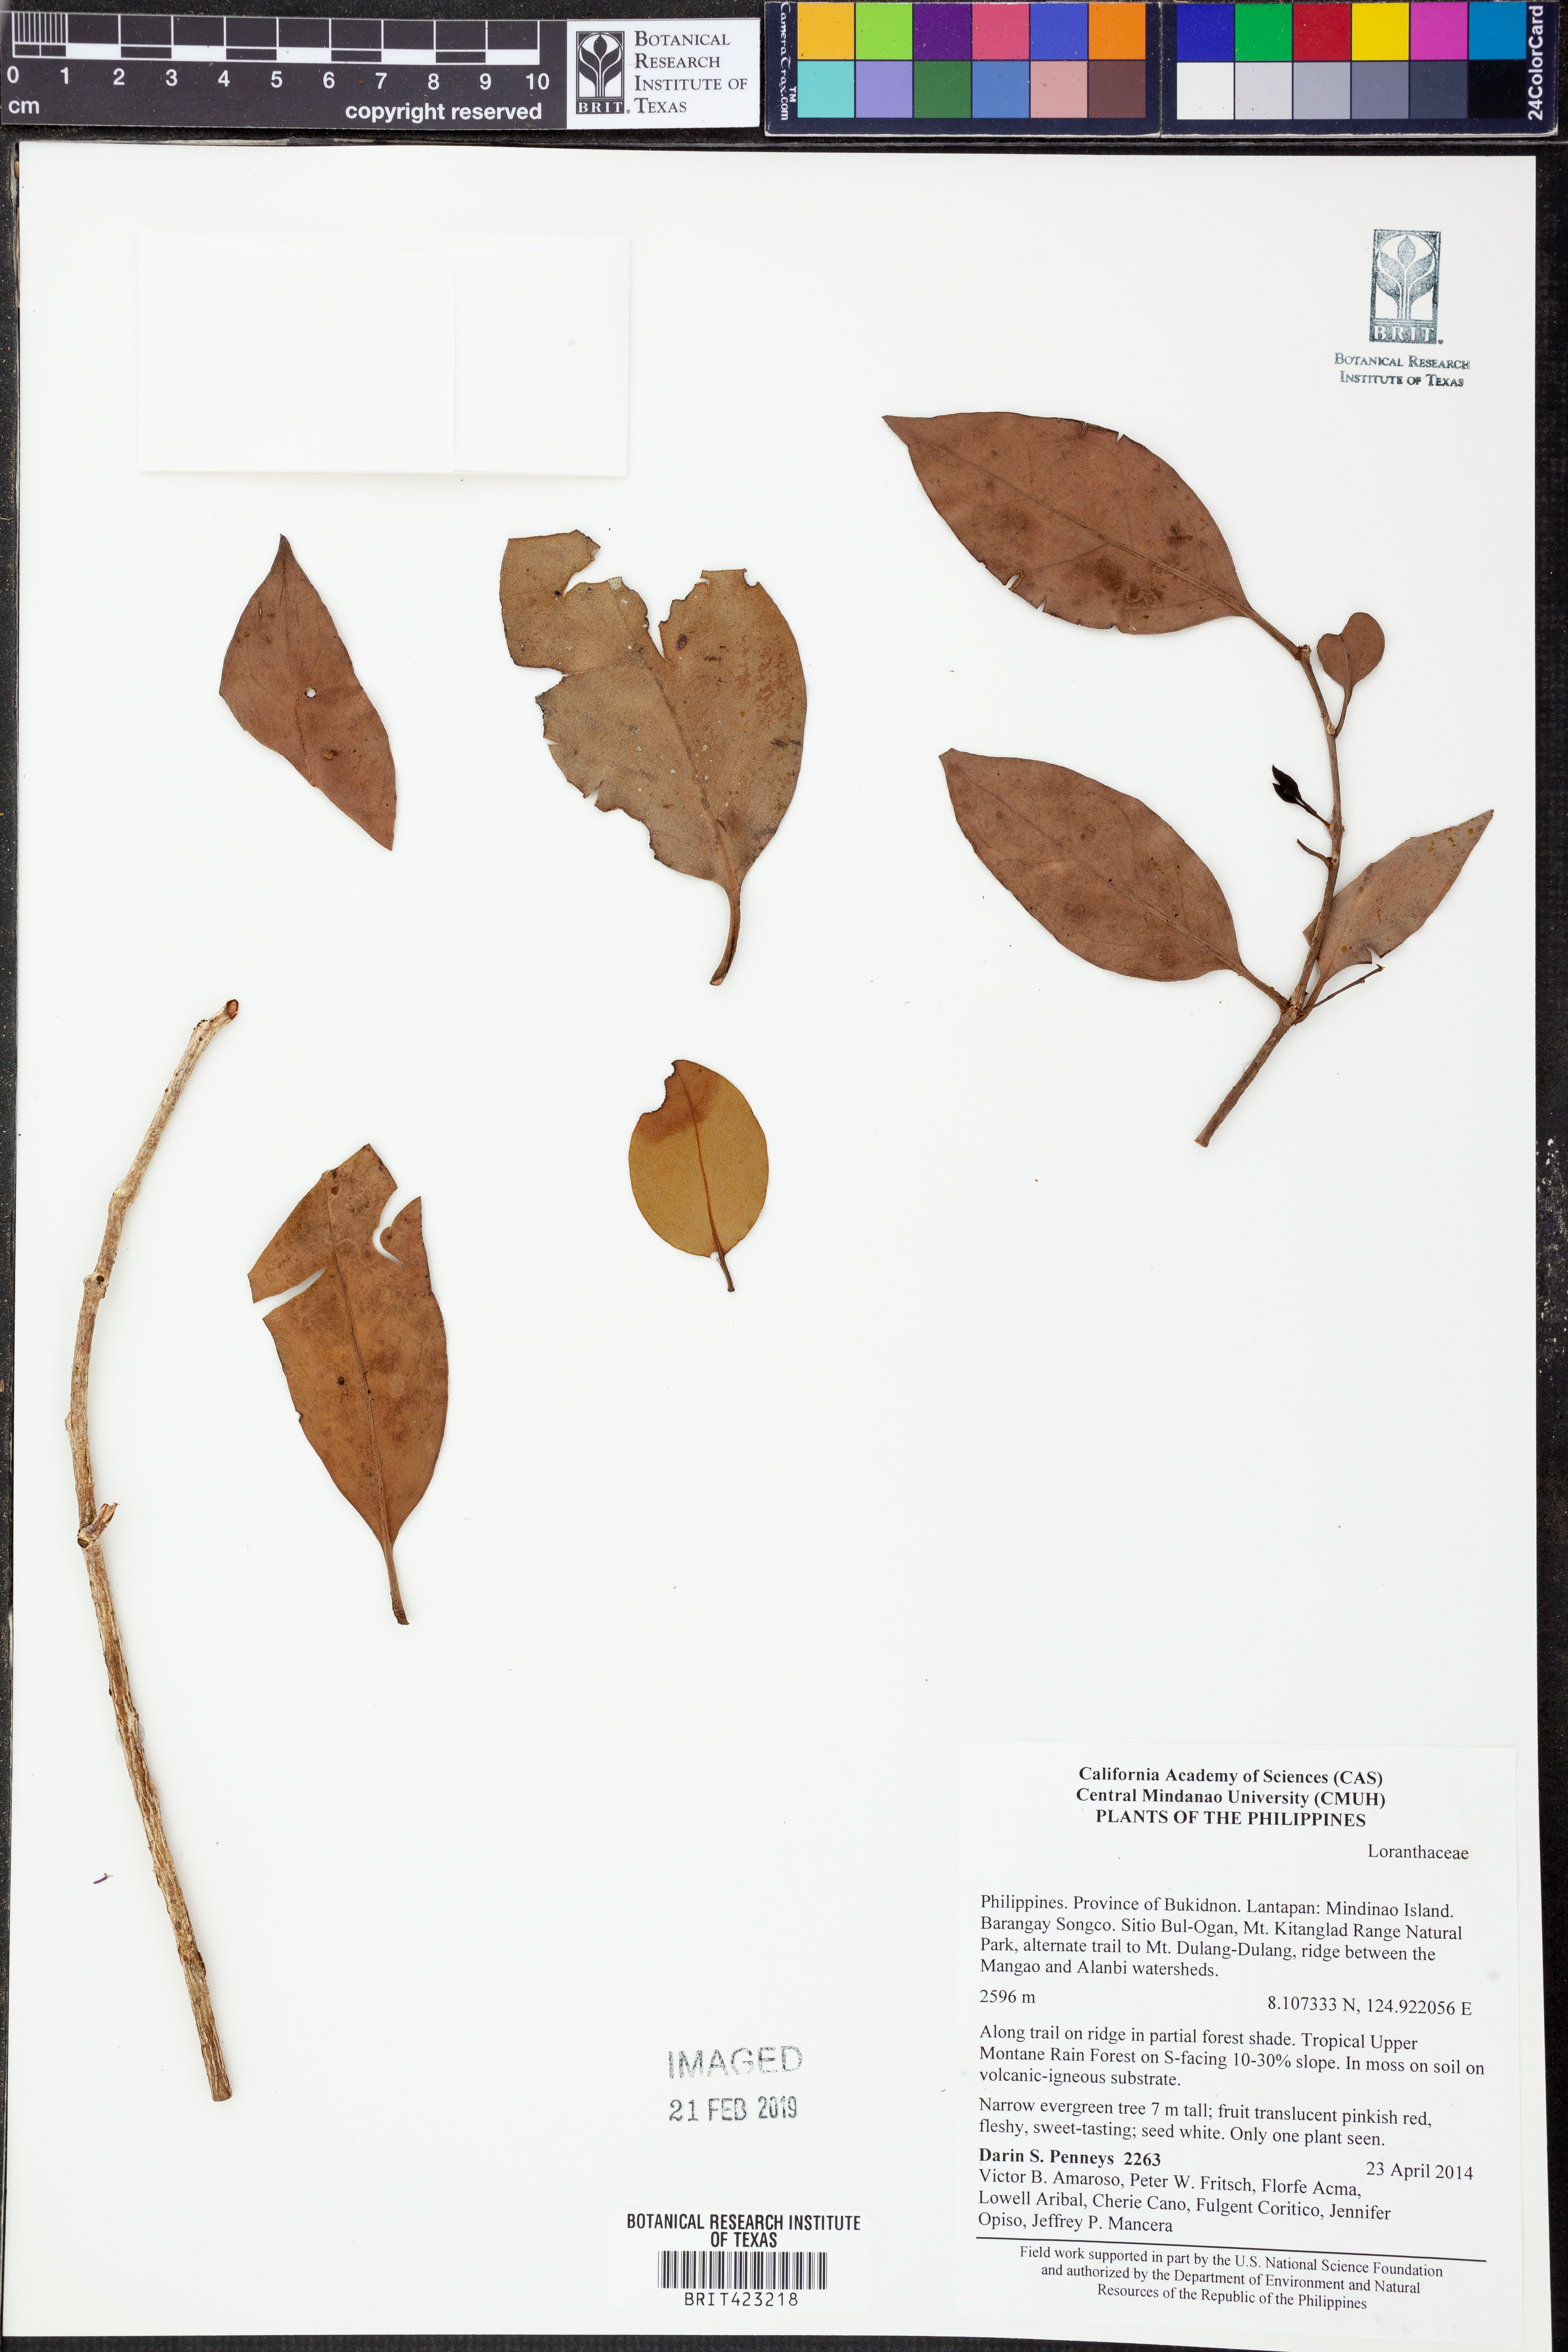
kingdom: Plantae
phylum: Tracheophyta
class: Magnoliopsida
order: Santalales
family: Loranthaceae
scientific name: Loranthaceae
